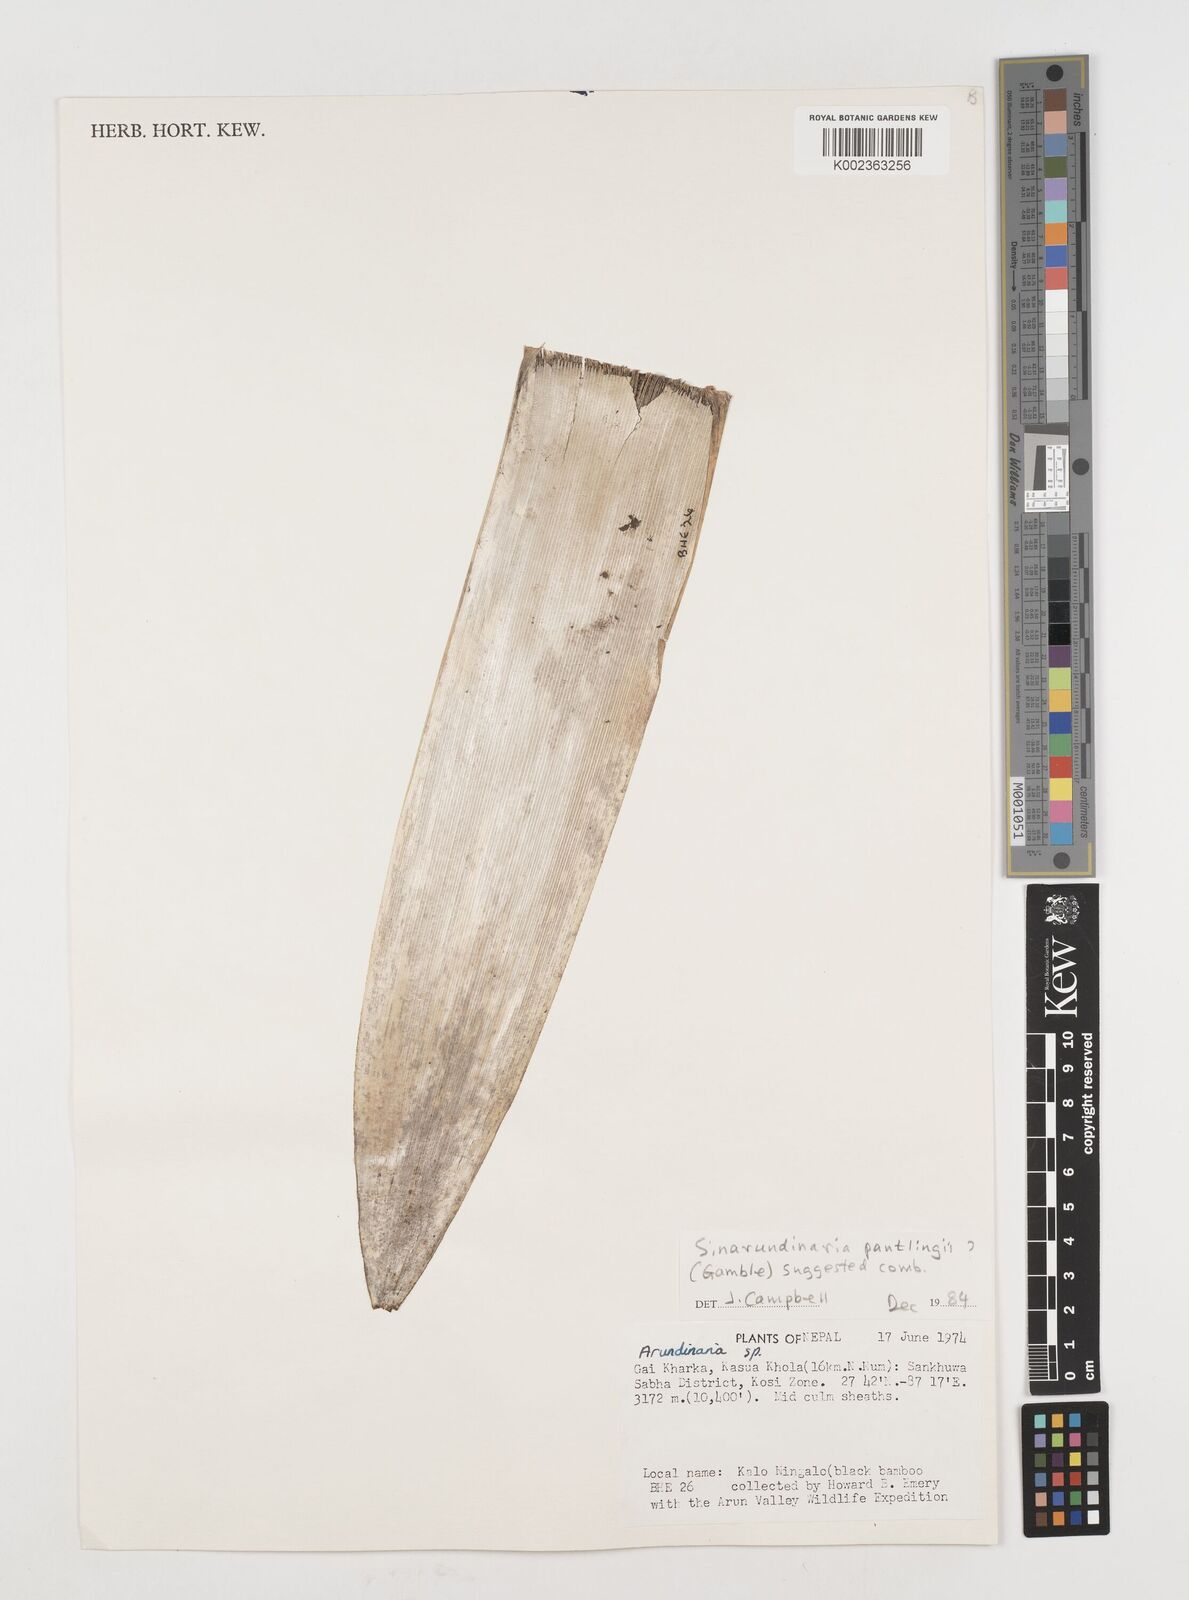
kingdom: Plantae
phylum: Tracheophyta
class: Liliopsida
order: Poales
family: Poaceae
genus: Fargesia
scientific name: Fargesia
